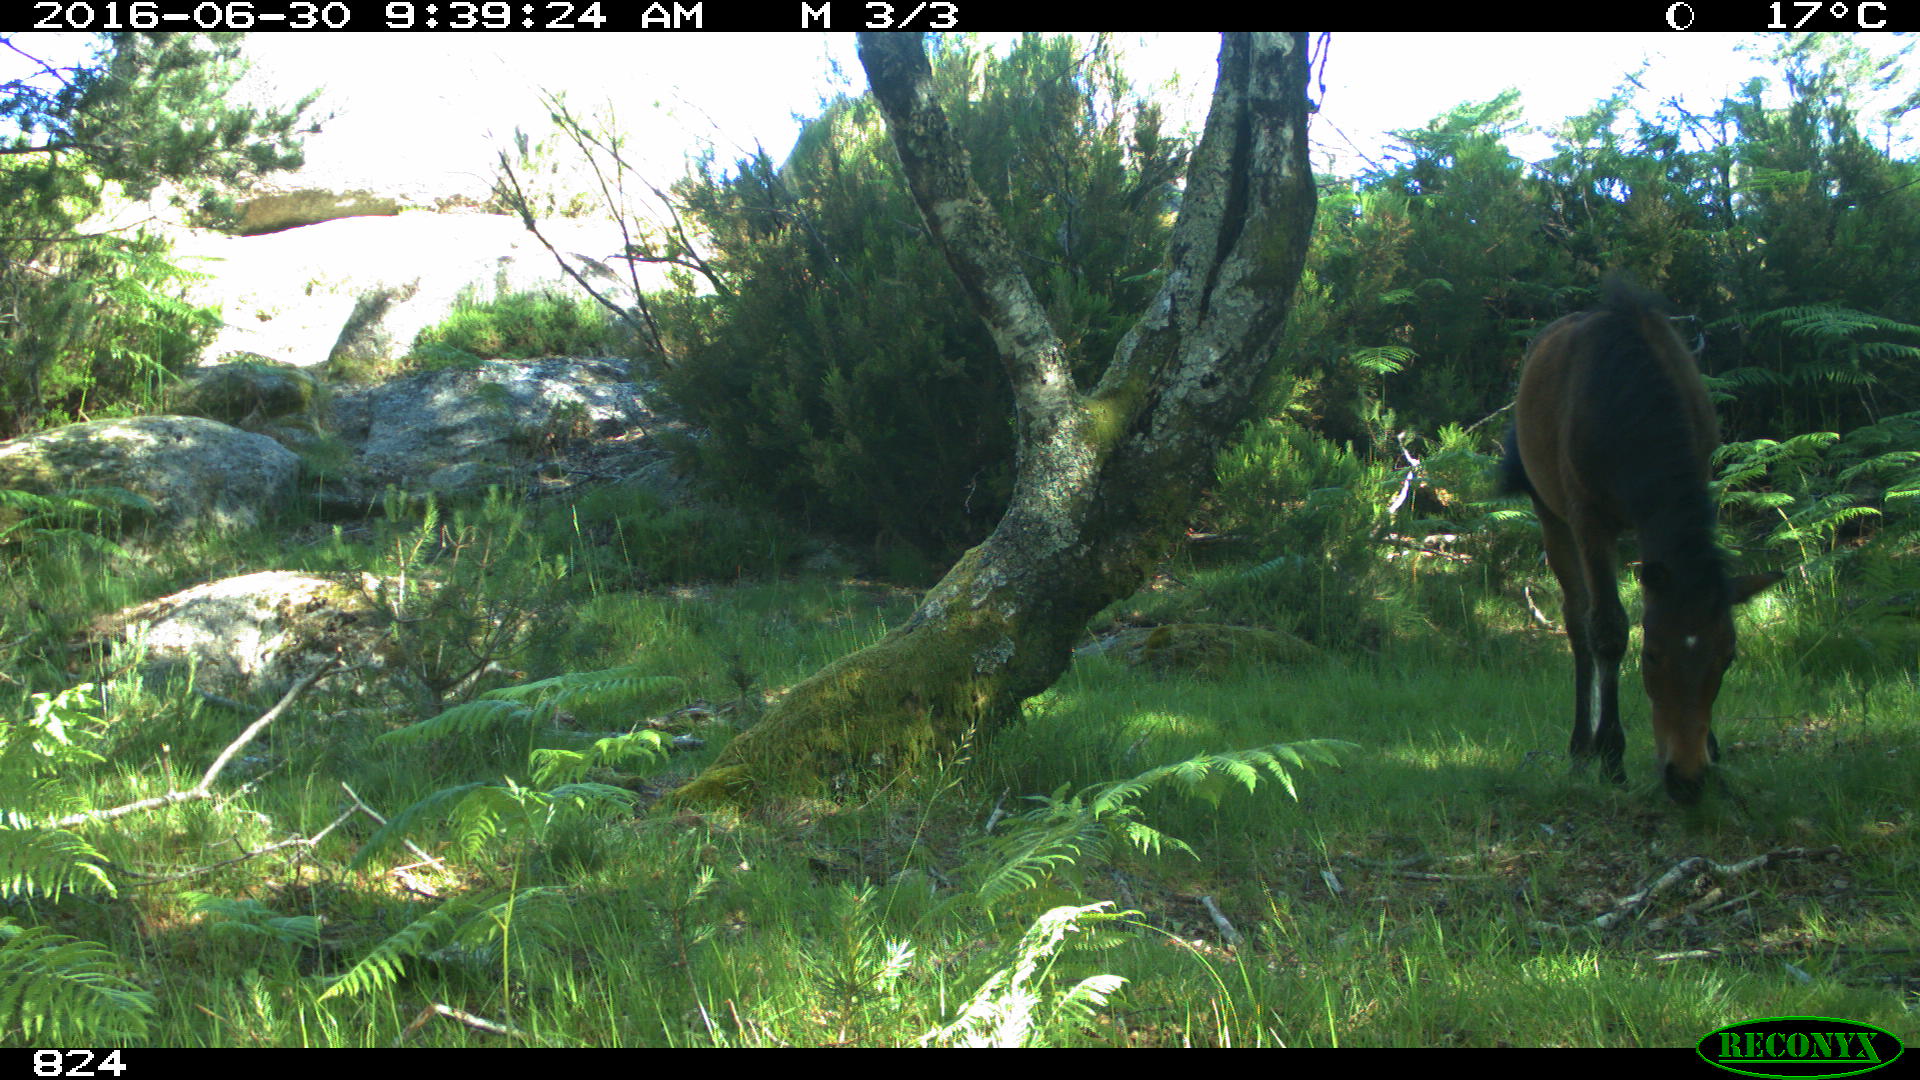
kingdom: Animalia
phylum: Chordata
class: Mammalia
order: Perissodactyla
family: Equidae
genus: Equus
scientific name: Equus caballus
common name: Horse
